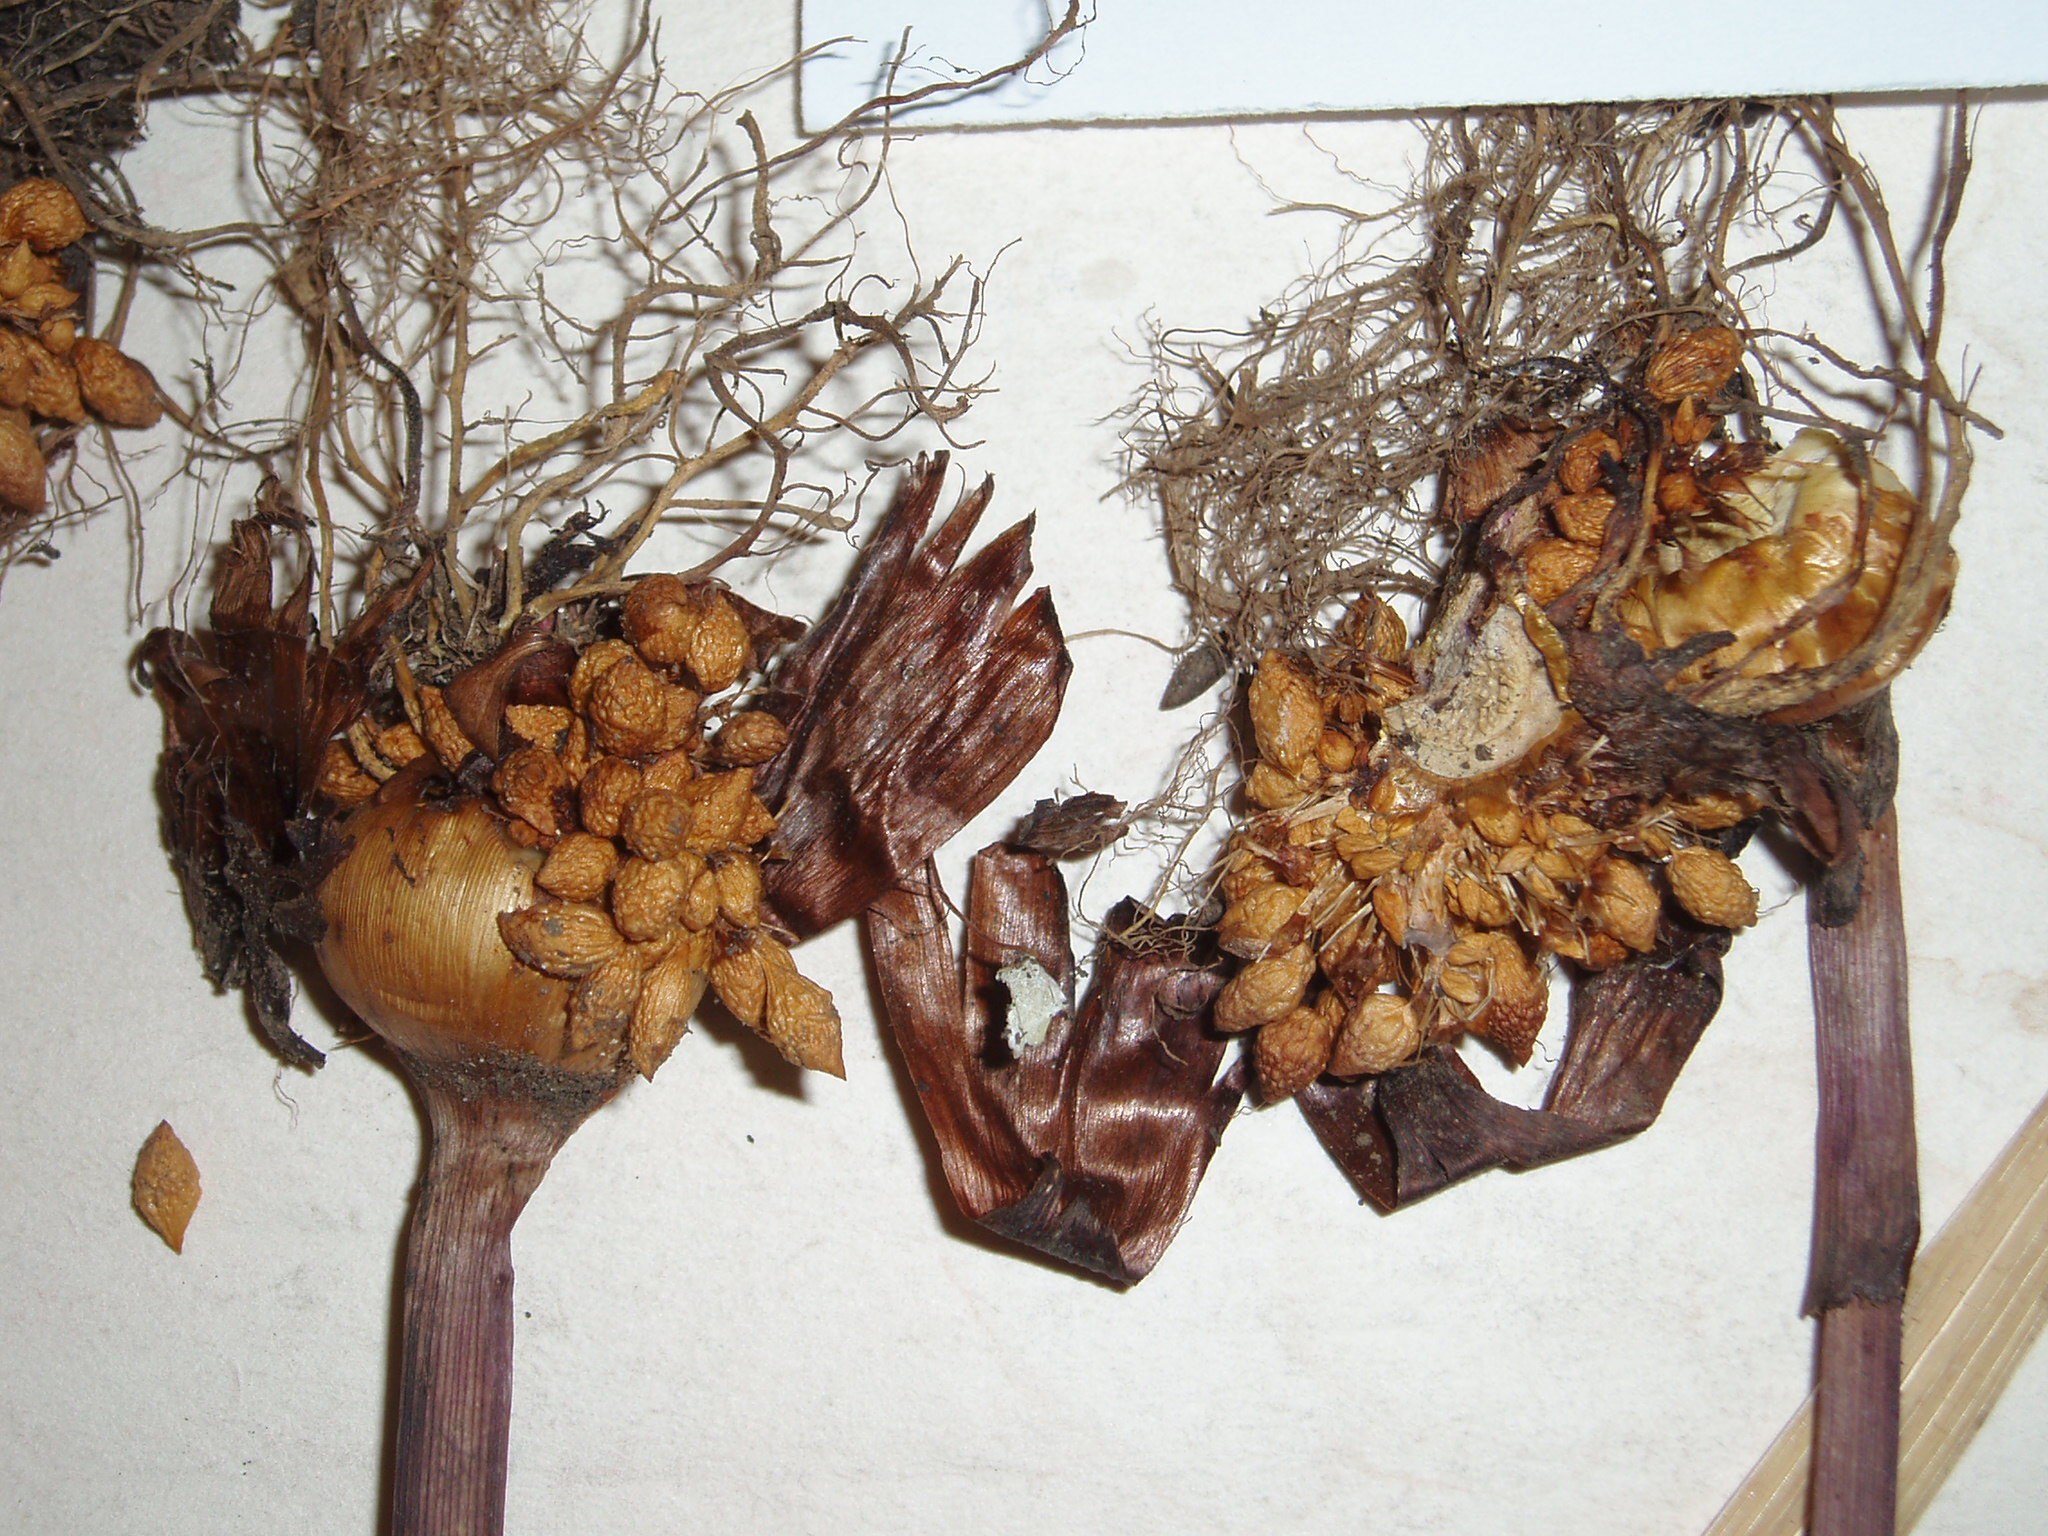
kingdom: Plantae
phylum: Tracheophyta
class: Liliopsida
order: Asparagales
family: Iridaceae
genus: Gladiolus
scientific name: Gladiolus undulatus
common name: Large painted-lady
